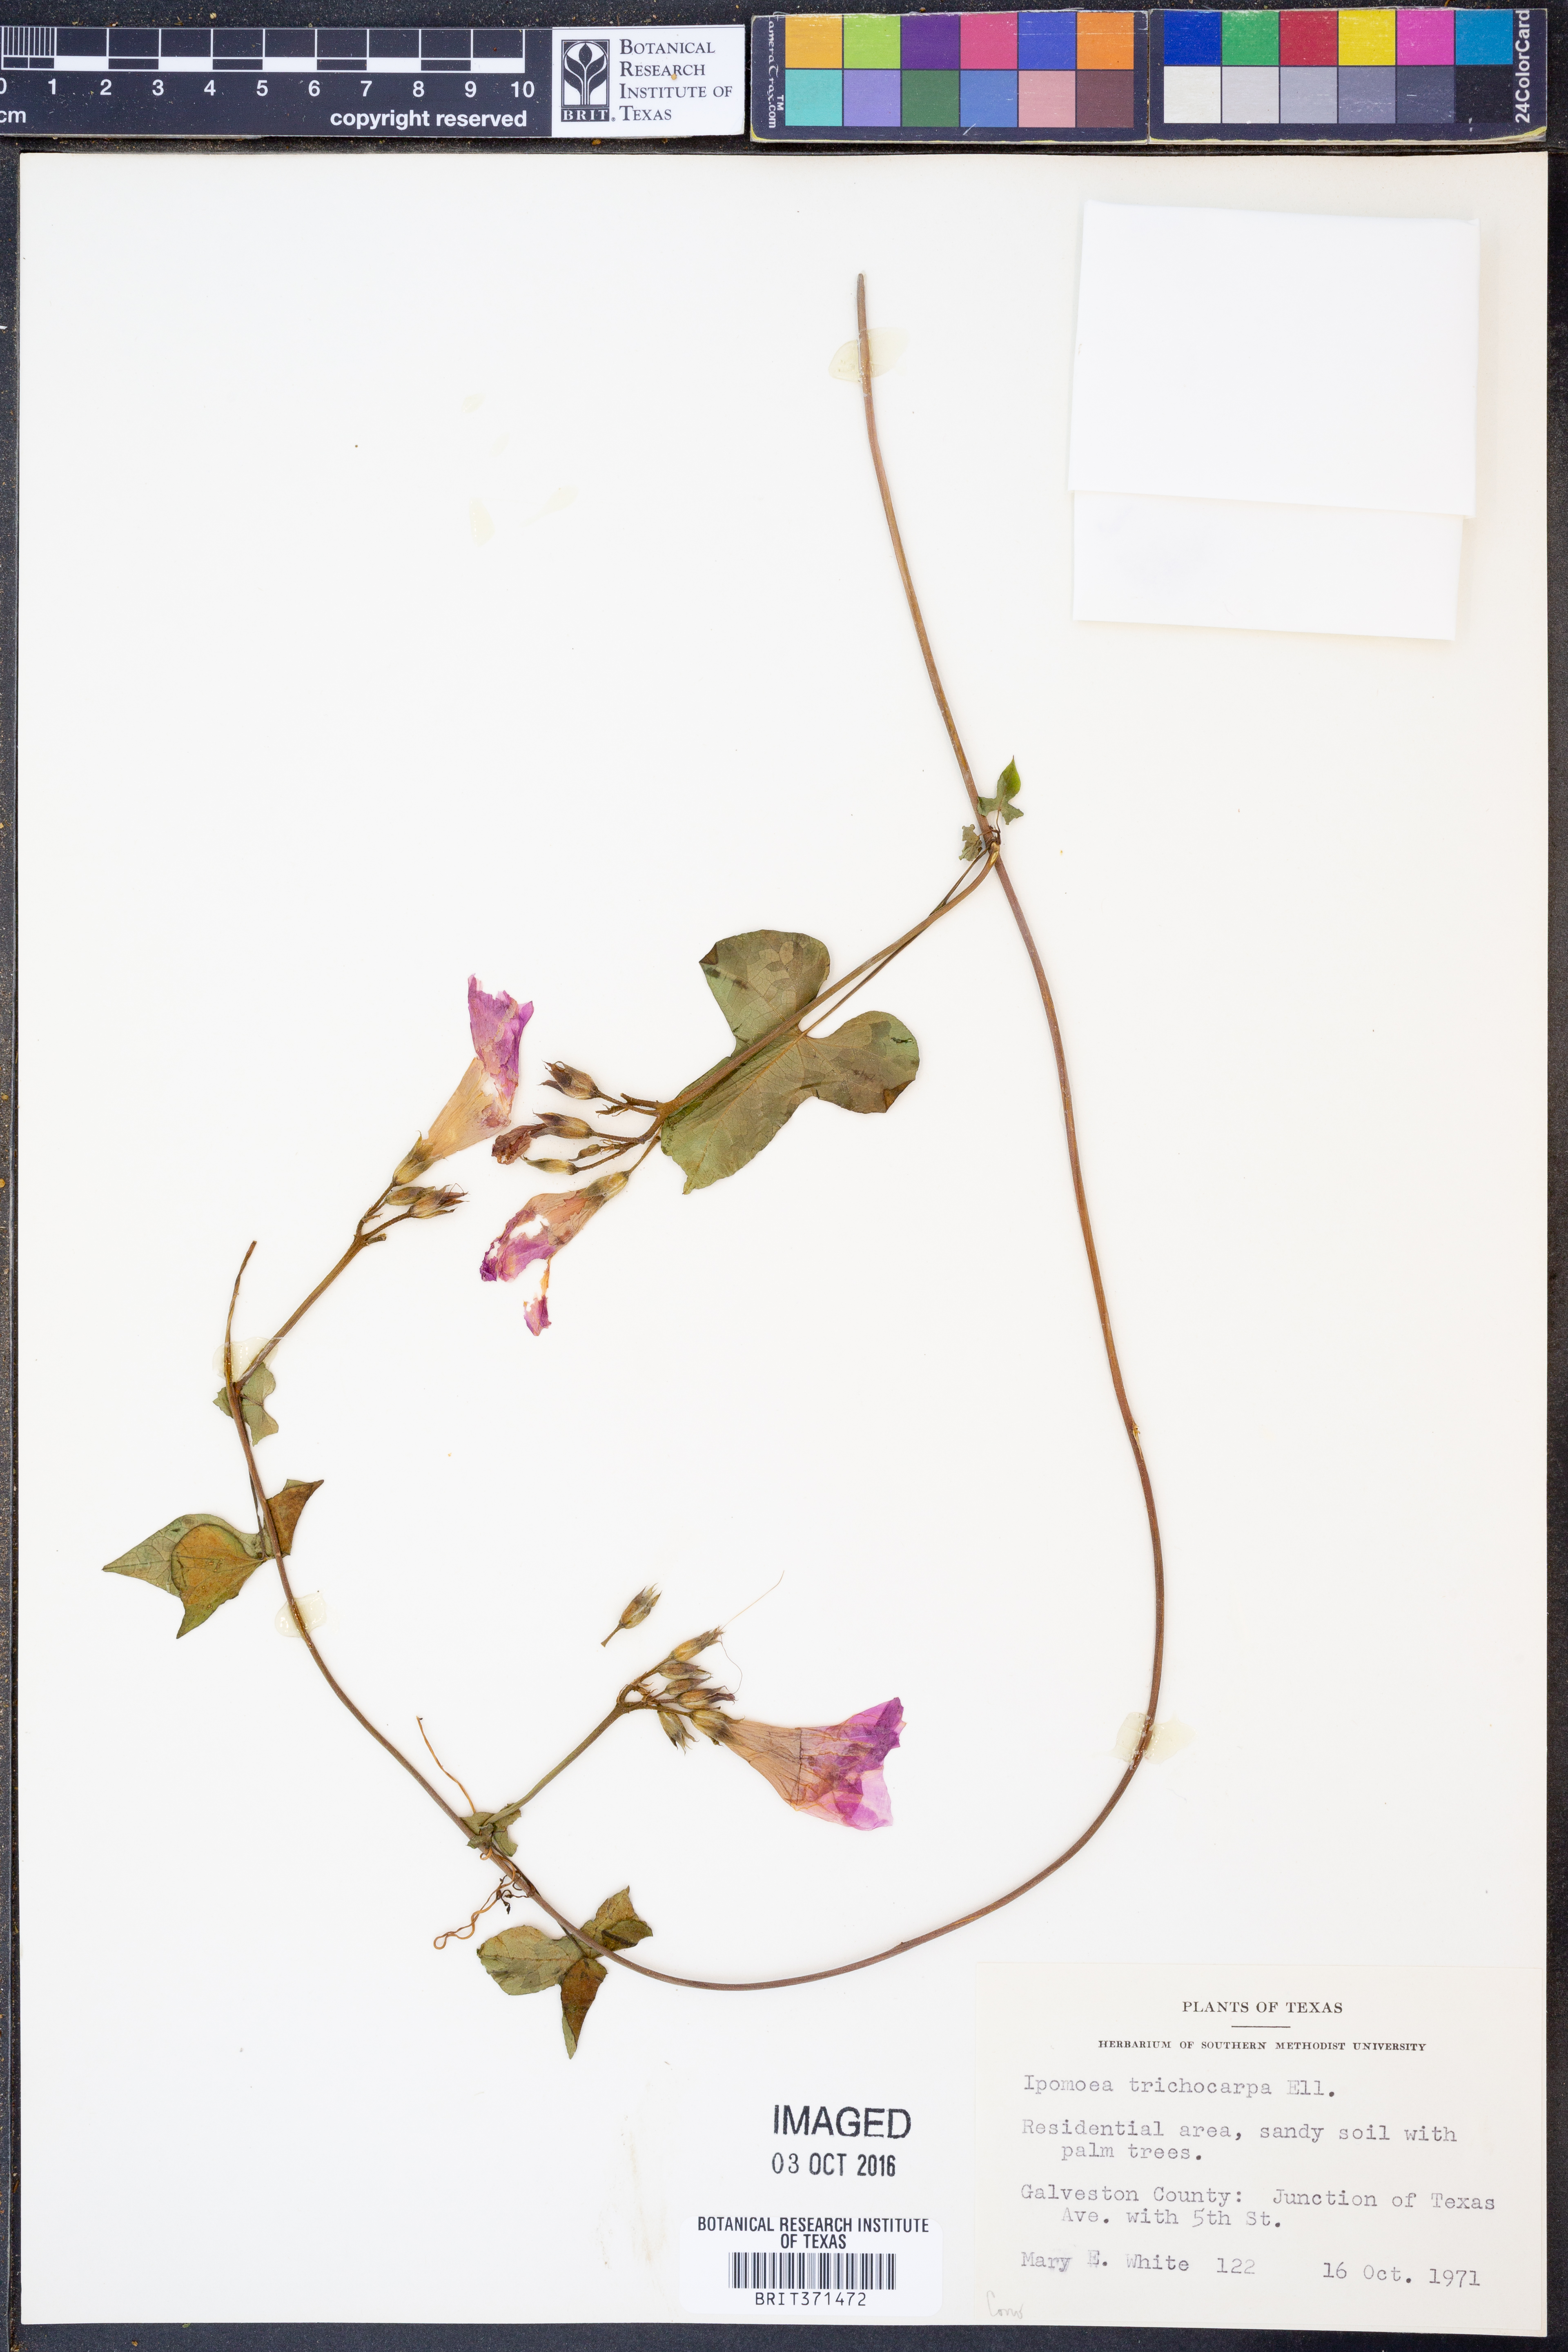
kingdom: Plantae
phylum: Tracheophyta
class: Magnoliopsida
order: Solanales
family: Convolvulaceae
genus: Ipomoea
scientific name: Ipomoea cordatotriloba
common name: Cotton morning glory
